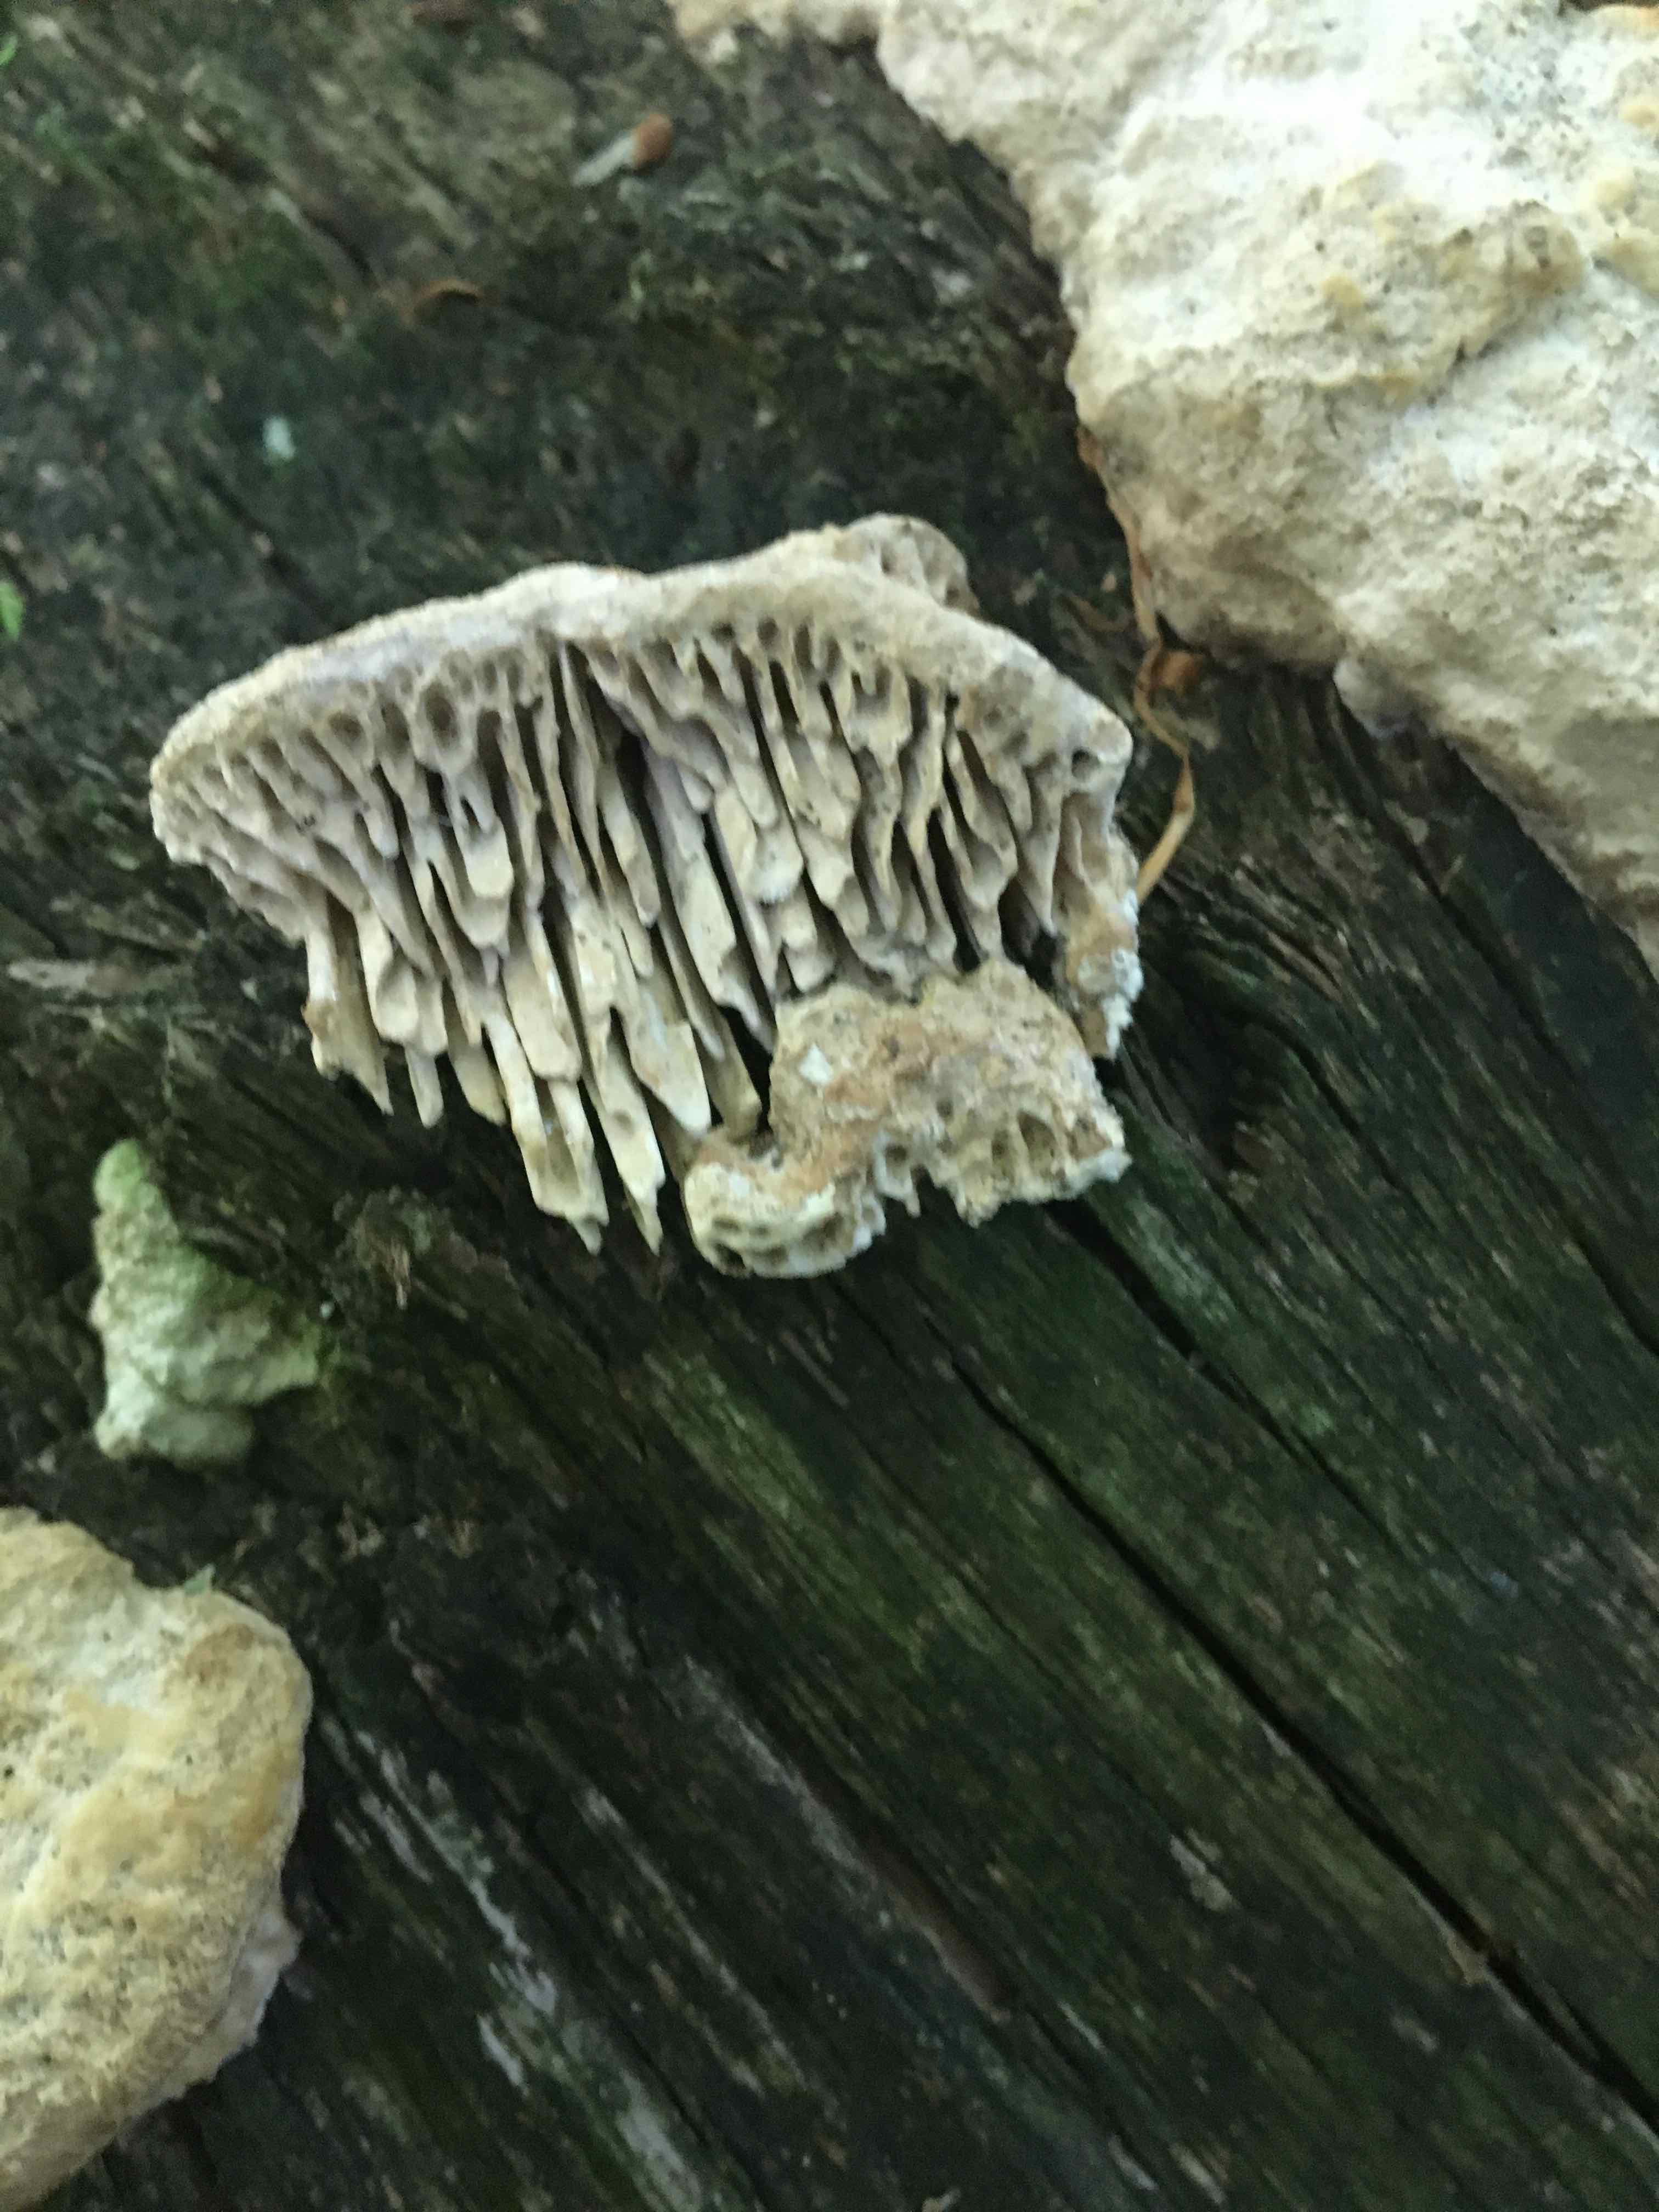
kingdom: Fungi
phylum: Basidiomycota
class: Agaricomycetes
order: Polyporales
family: Fomitopsidaceae
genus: Daedalea
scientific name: Daedalea quercina
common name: ege-labyrintsvamp
